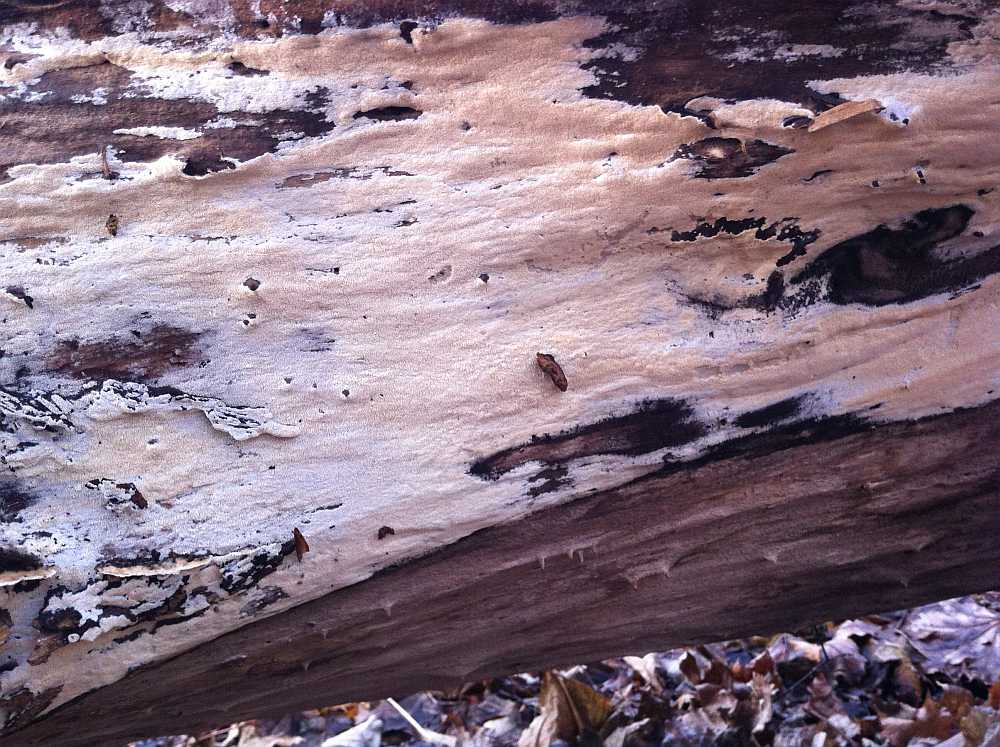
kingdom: Fungi
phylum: Basidiomycota
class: Agaricomycetes
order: Hymenochaetales
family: Oxyporaceae
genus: Oxyporus
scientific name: Oxyporus obducens
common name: skorpe-trylleporesvamp
